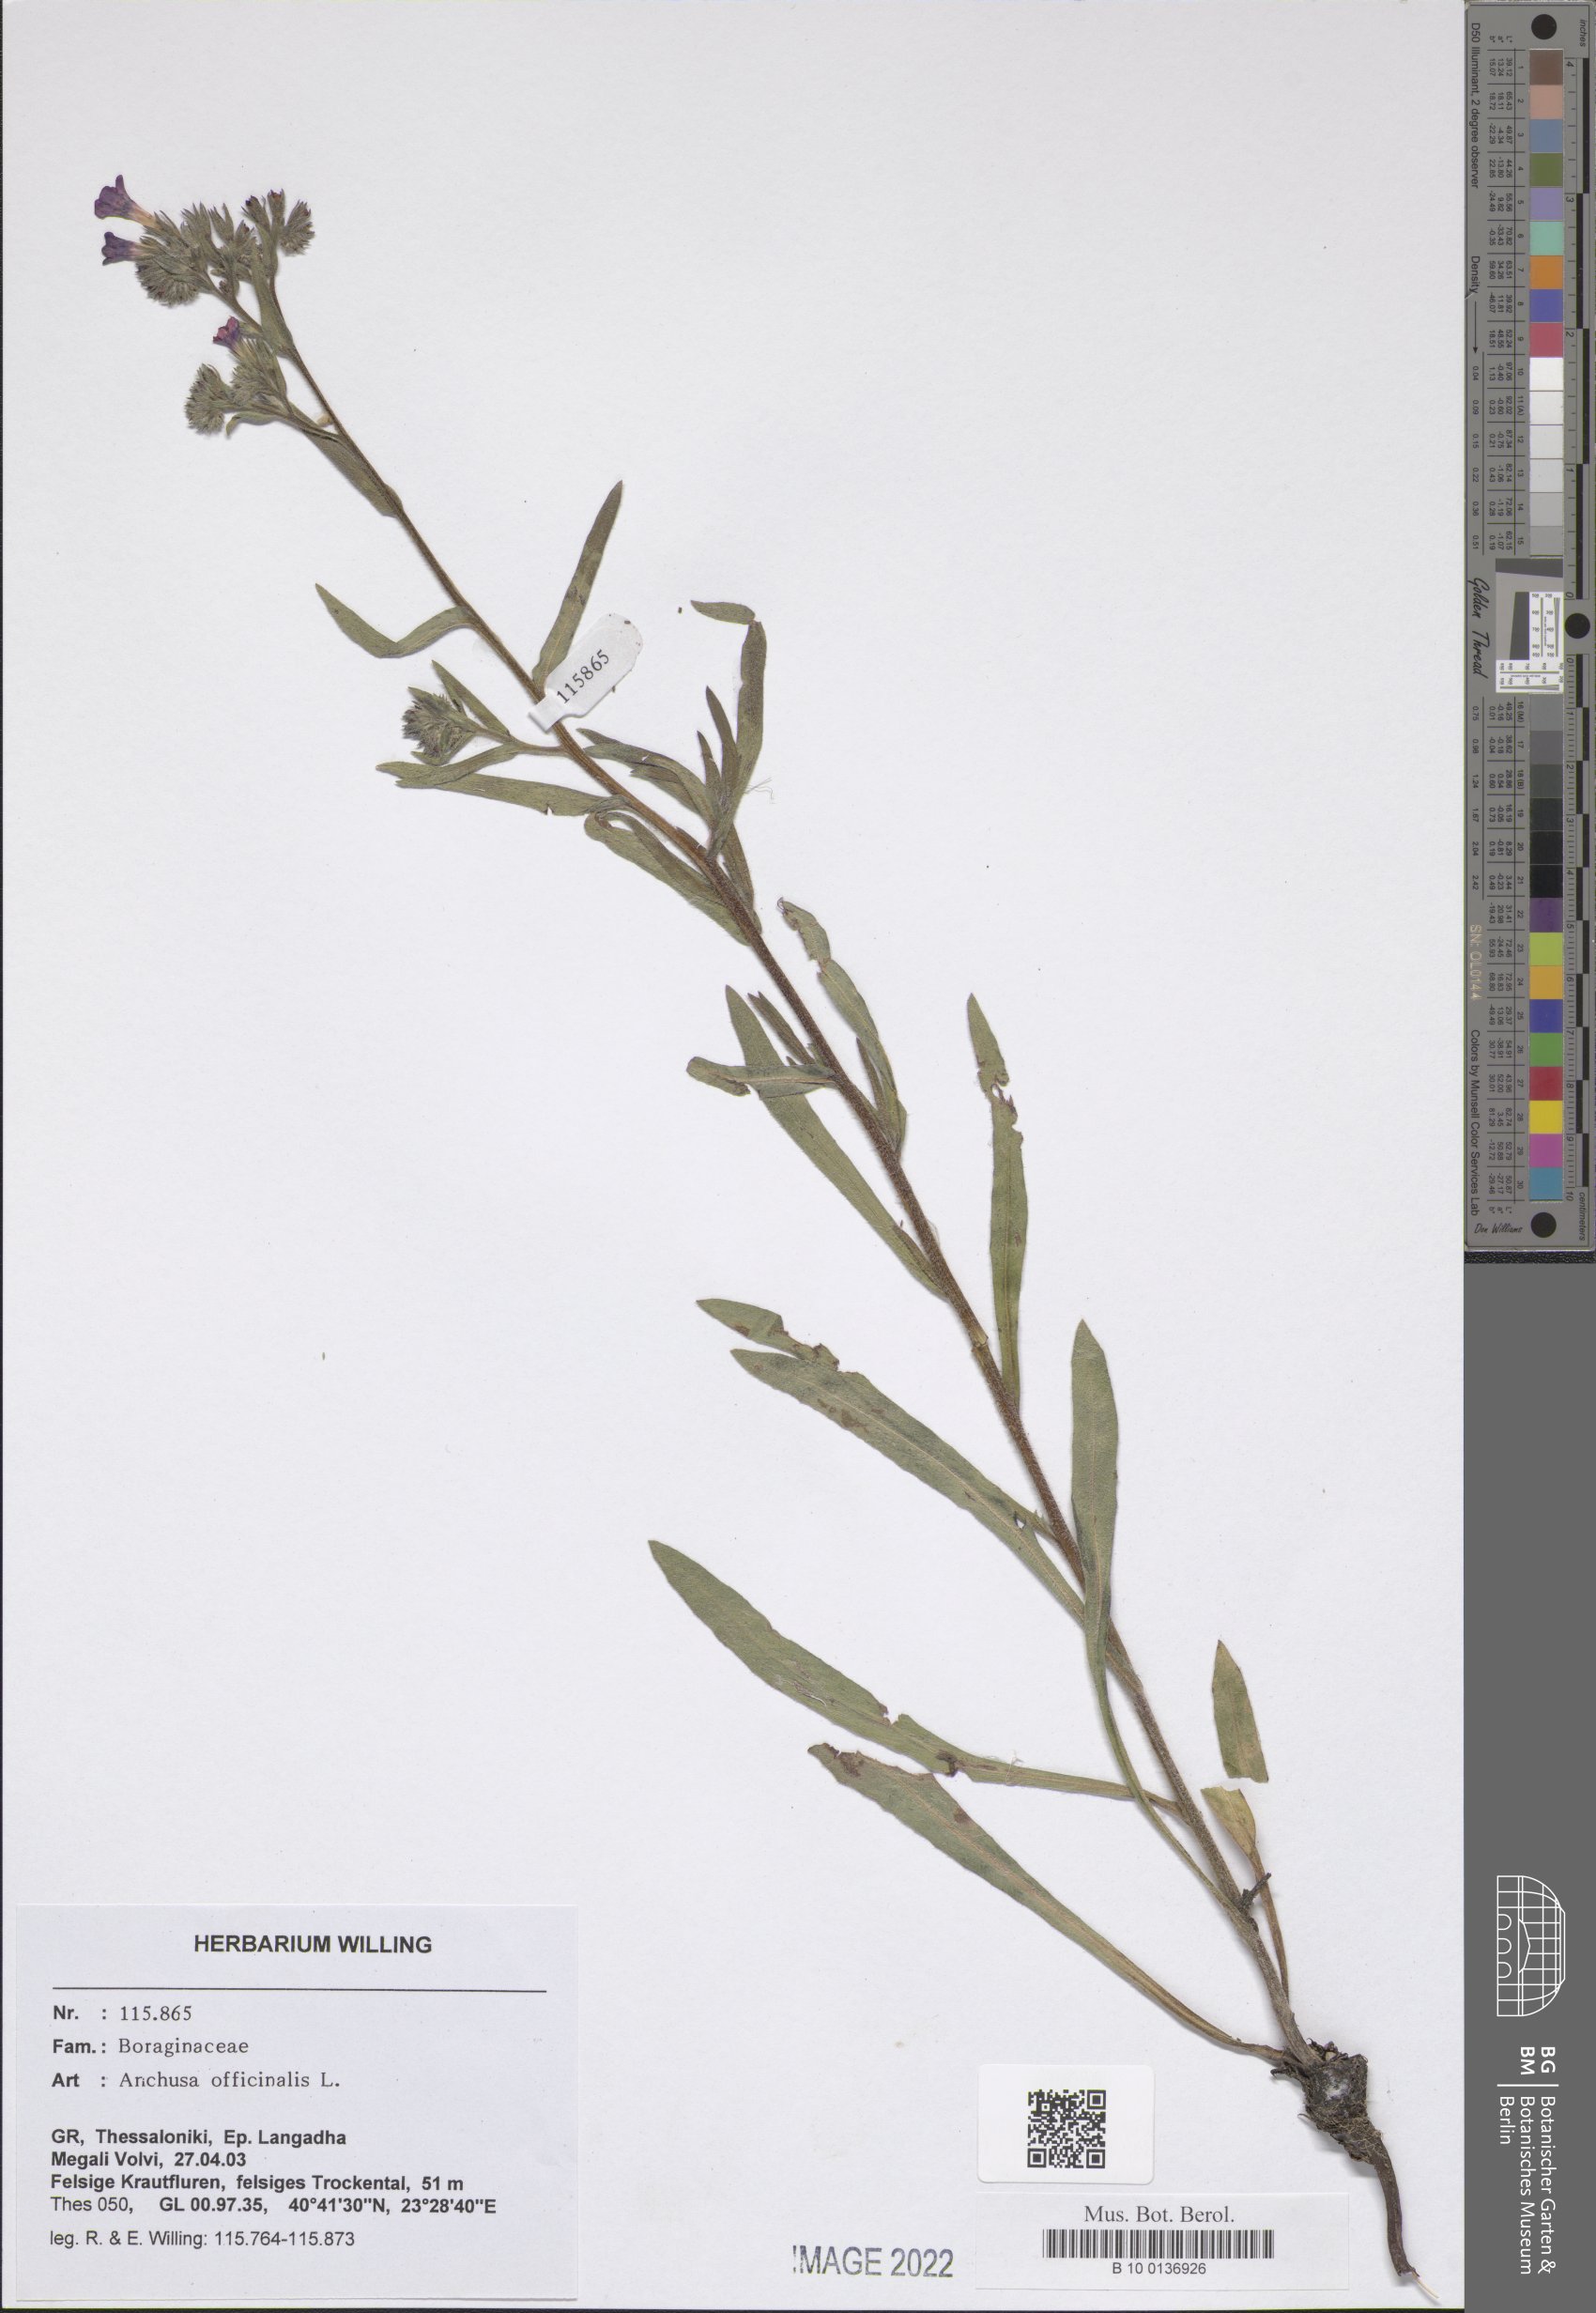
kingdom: Plantae
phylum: Tracheophyta
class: Magnoliopsida
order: Boraginales
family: Boraginaceae
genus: Anchusa
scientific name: Anchusa officinalis
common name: Alkanet
